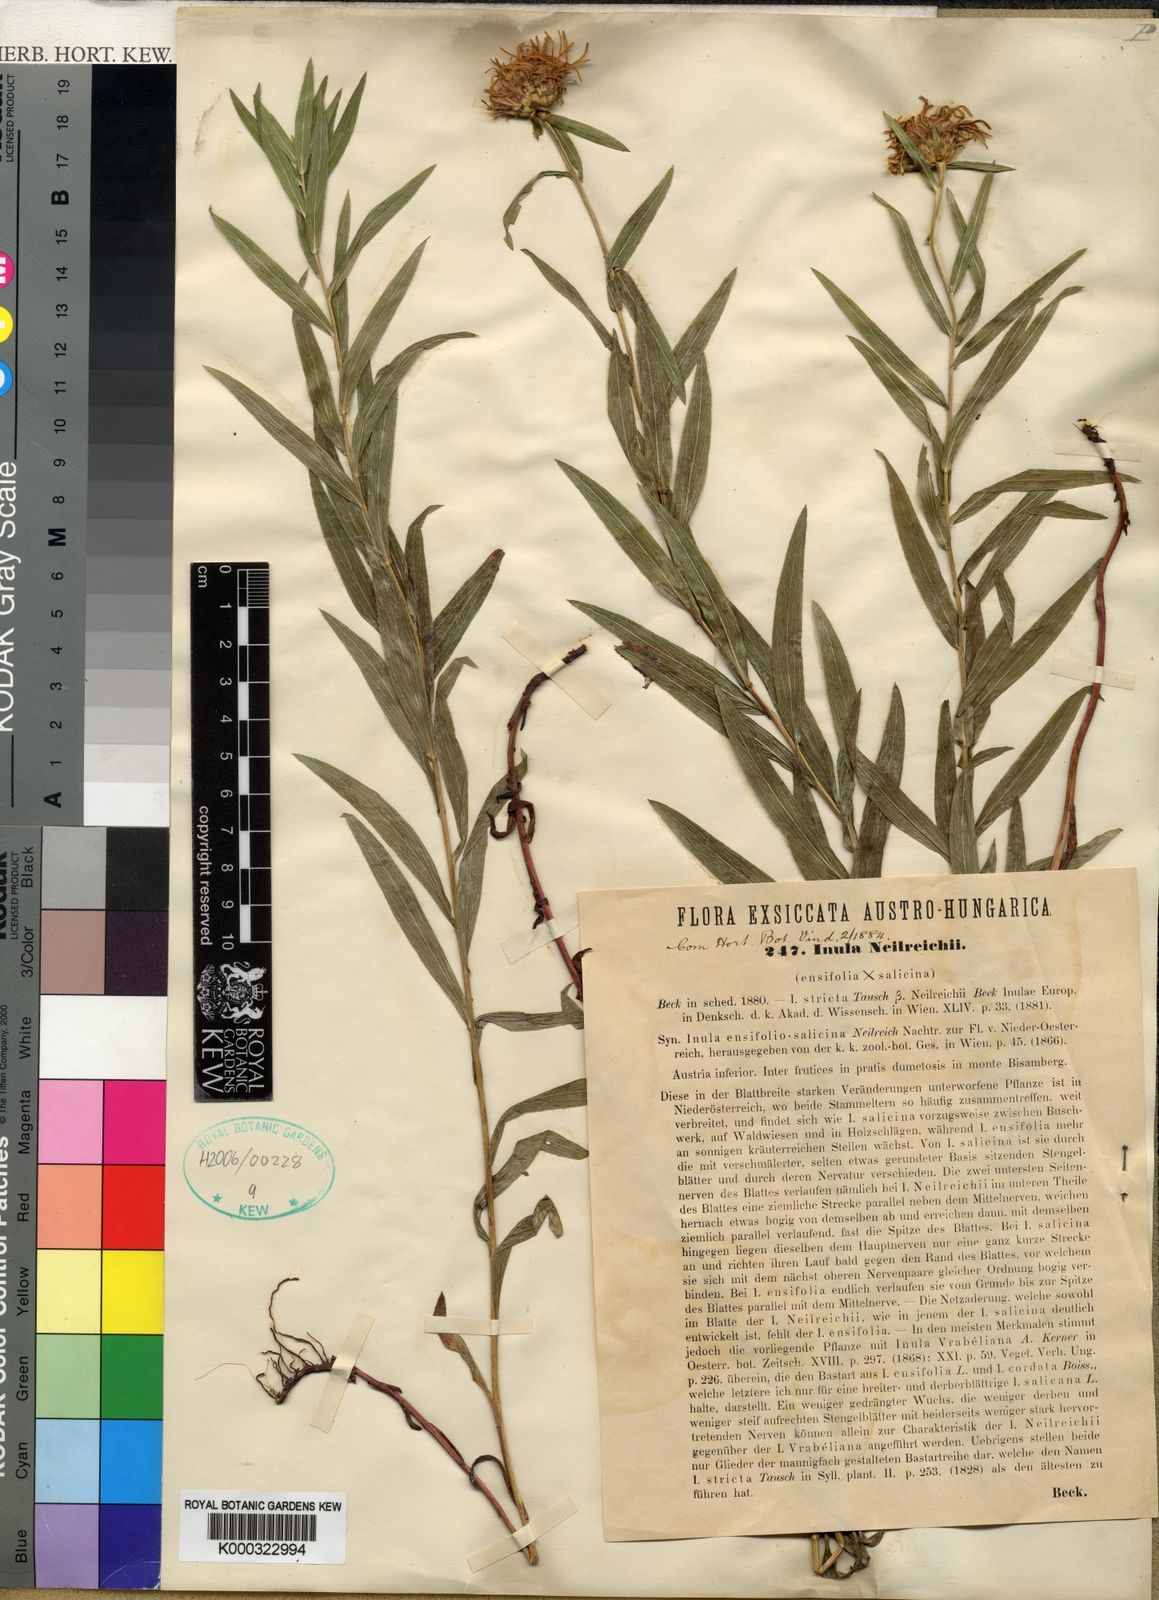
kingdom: Plantae
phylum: Tracheophyta
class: Magnoliopsida
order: Asterales
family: Asteraceae
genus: Pentanema
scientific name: Pentanema strictum
